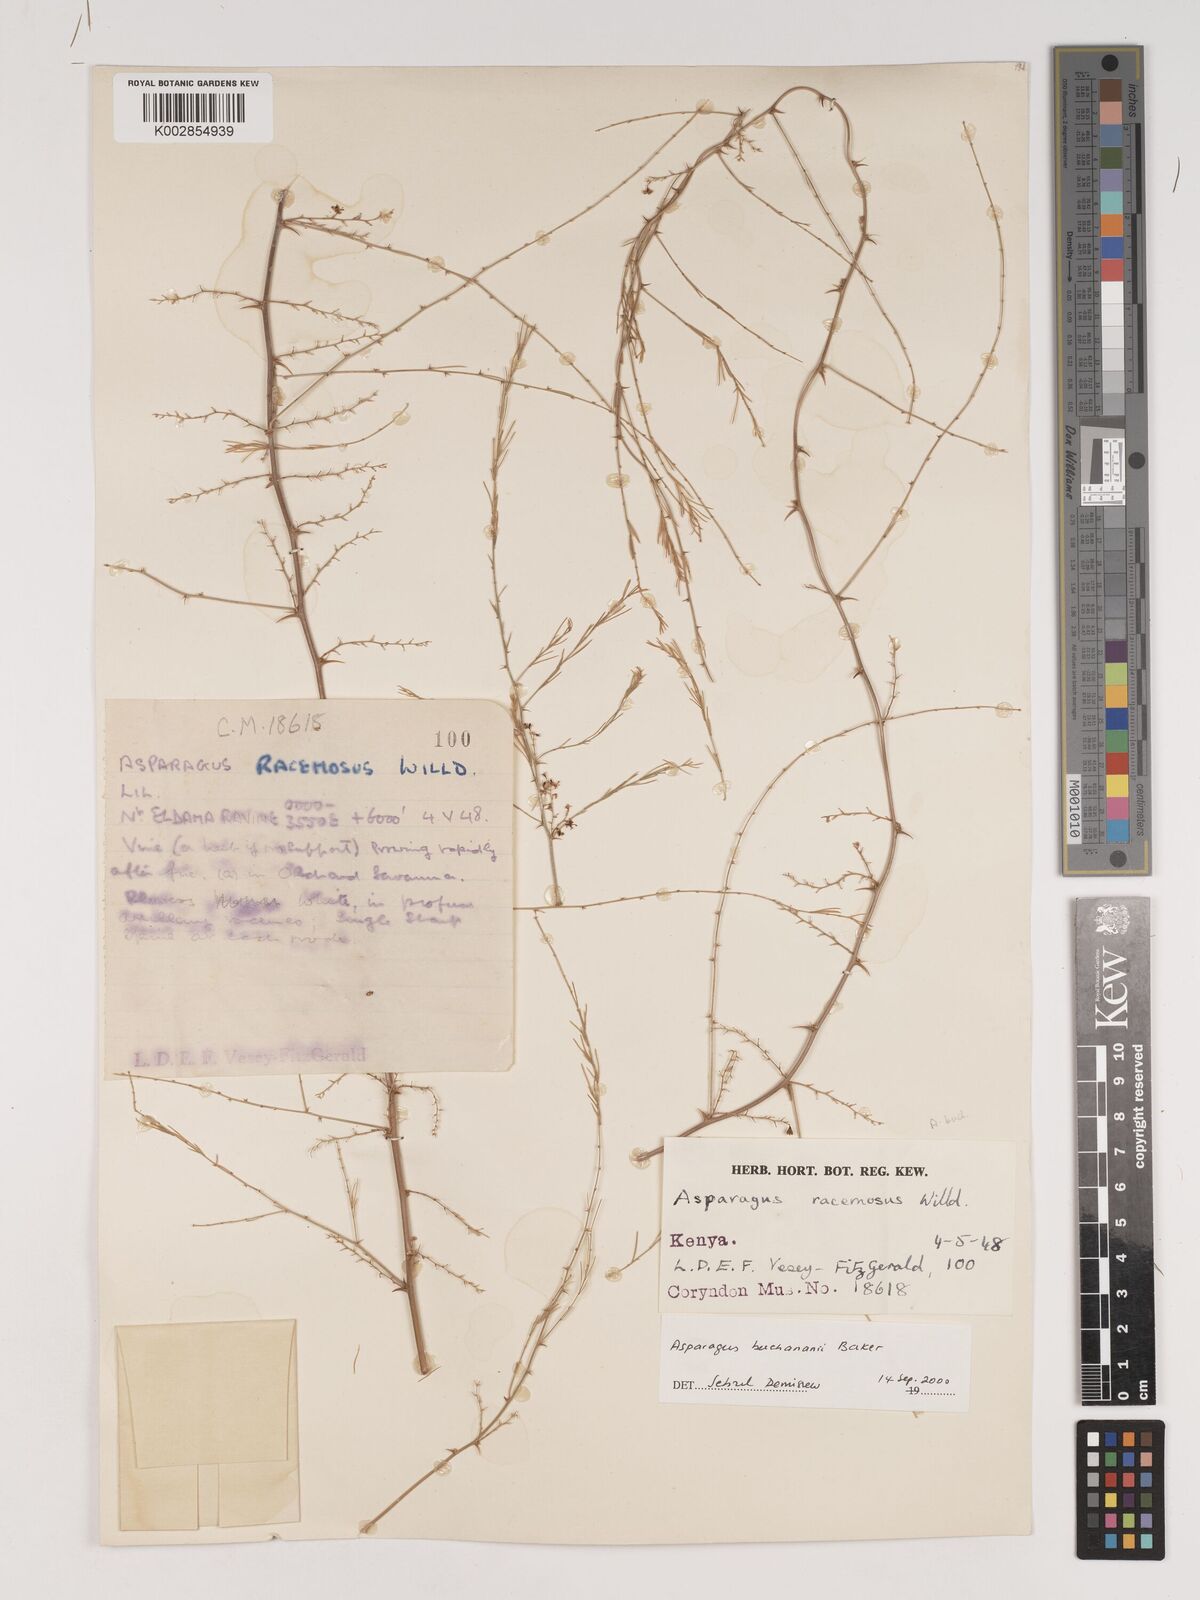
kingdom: Plantae
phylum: Tracheophyta
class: Liliopsida
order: Asparagales
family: Asparagaceae
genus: Asparagus
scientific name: Asparagus buchananii
